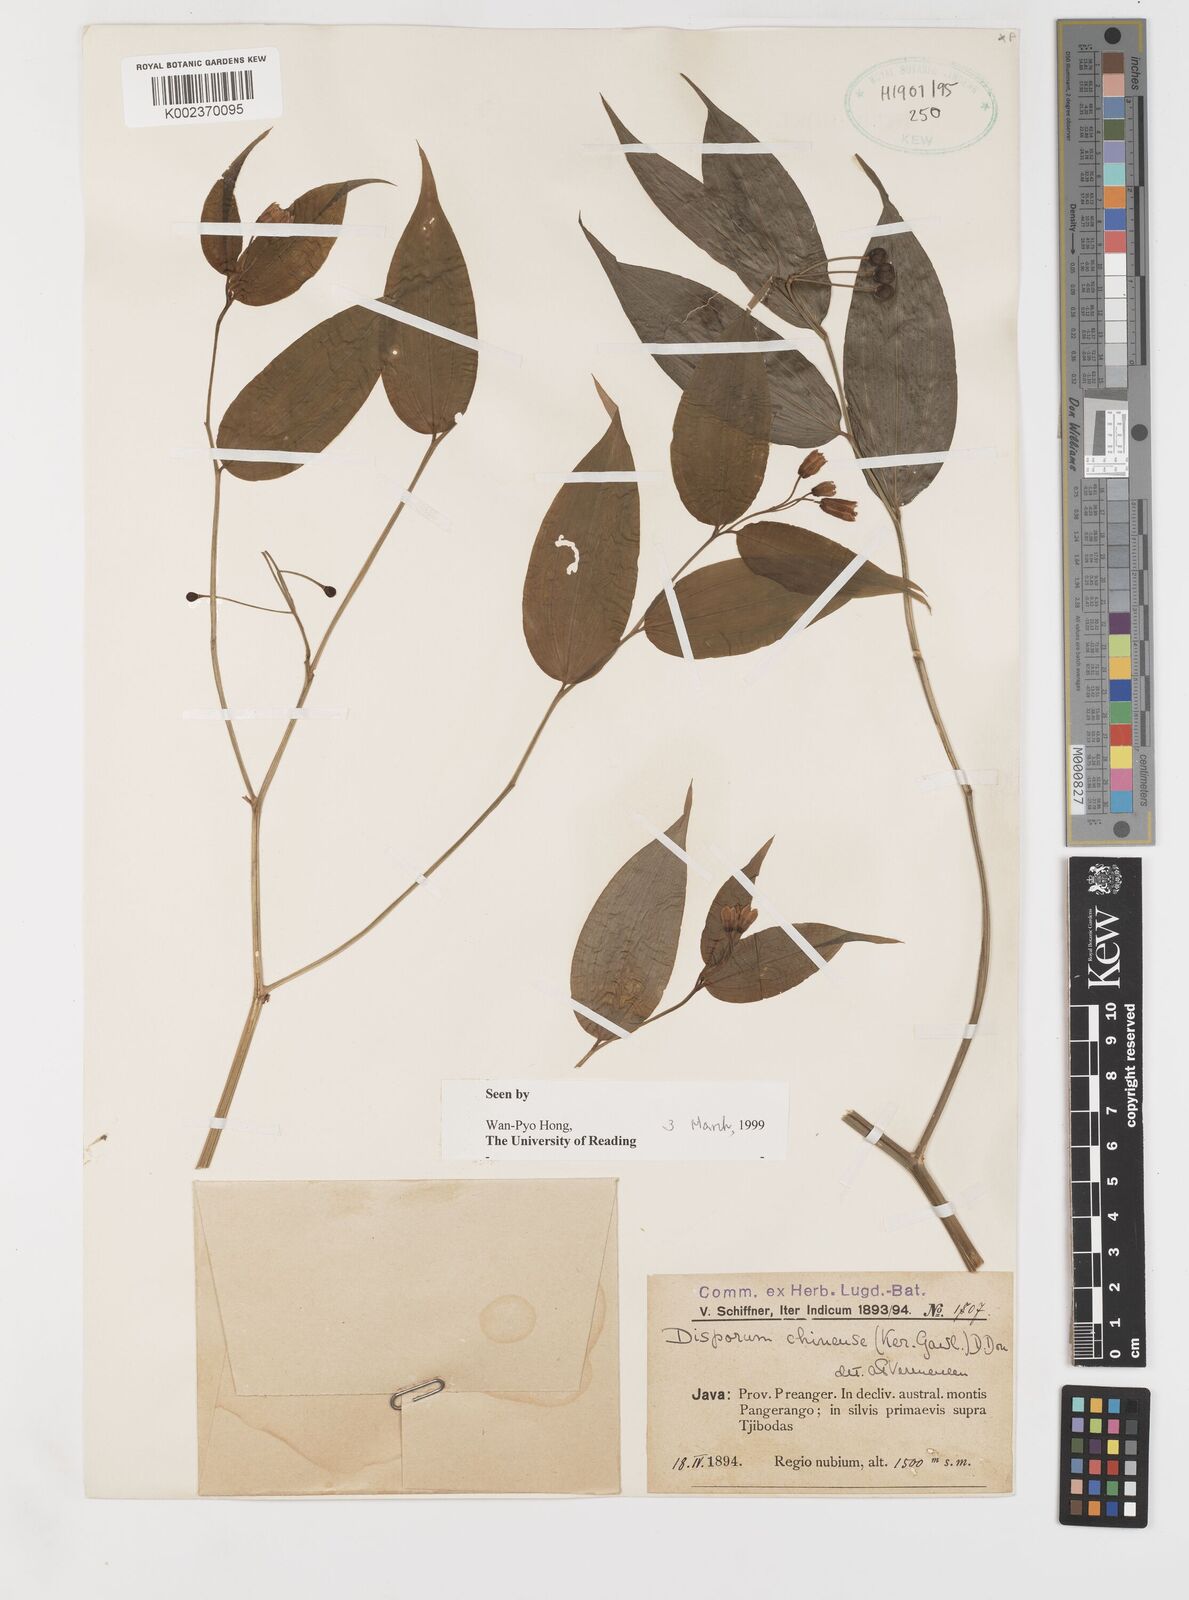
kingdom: Plantae
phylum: Tracheophyta
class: Liliopsida
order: Liliales
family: Colchicaceae
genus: Disporum
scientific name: Disporum cantoniense
